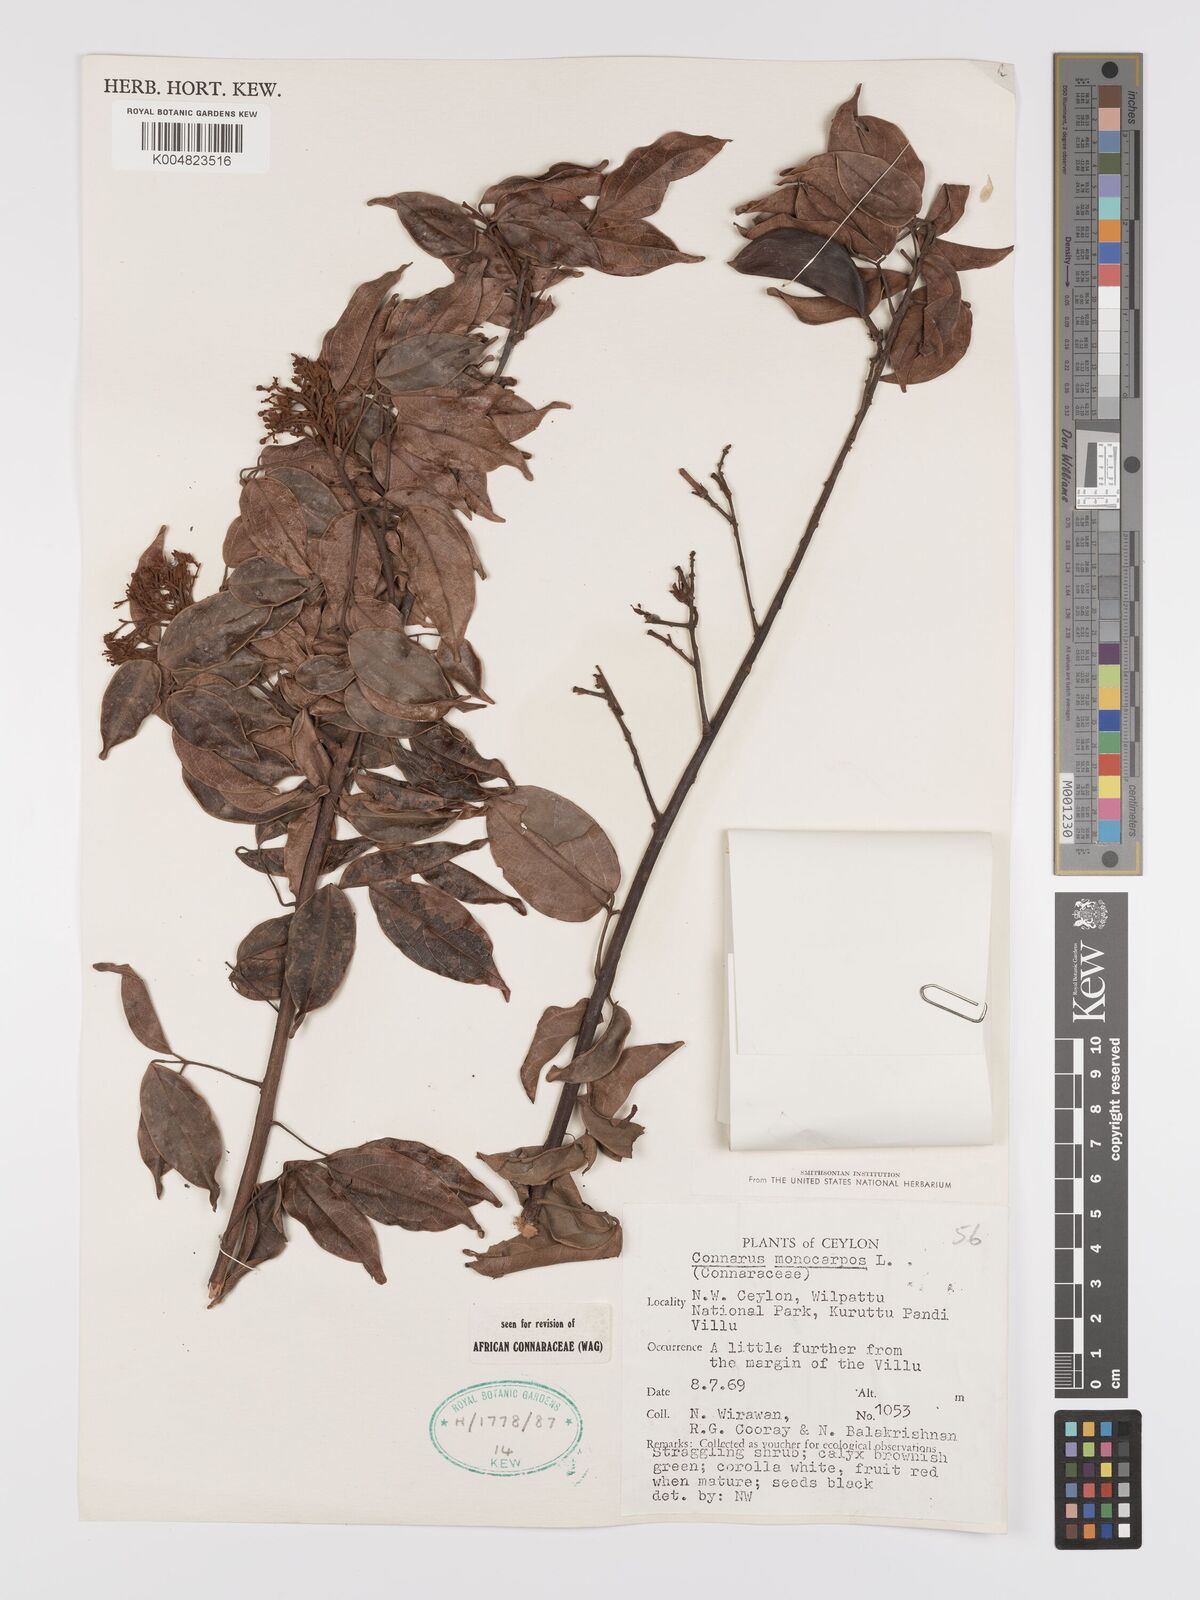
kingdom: Plantae
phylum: Tracheophyta
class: Magnoliopsida
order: Oxalidales
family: Connaraceae
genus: Connarus
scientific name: Connarus semidecandrus
